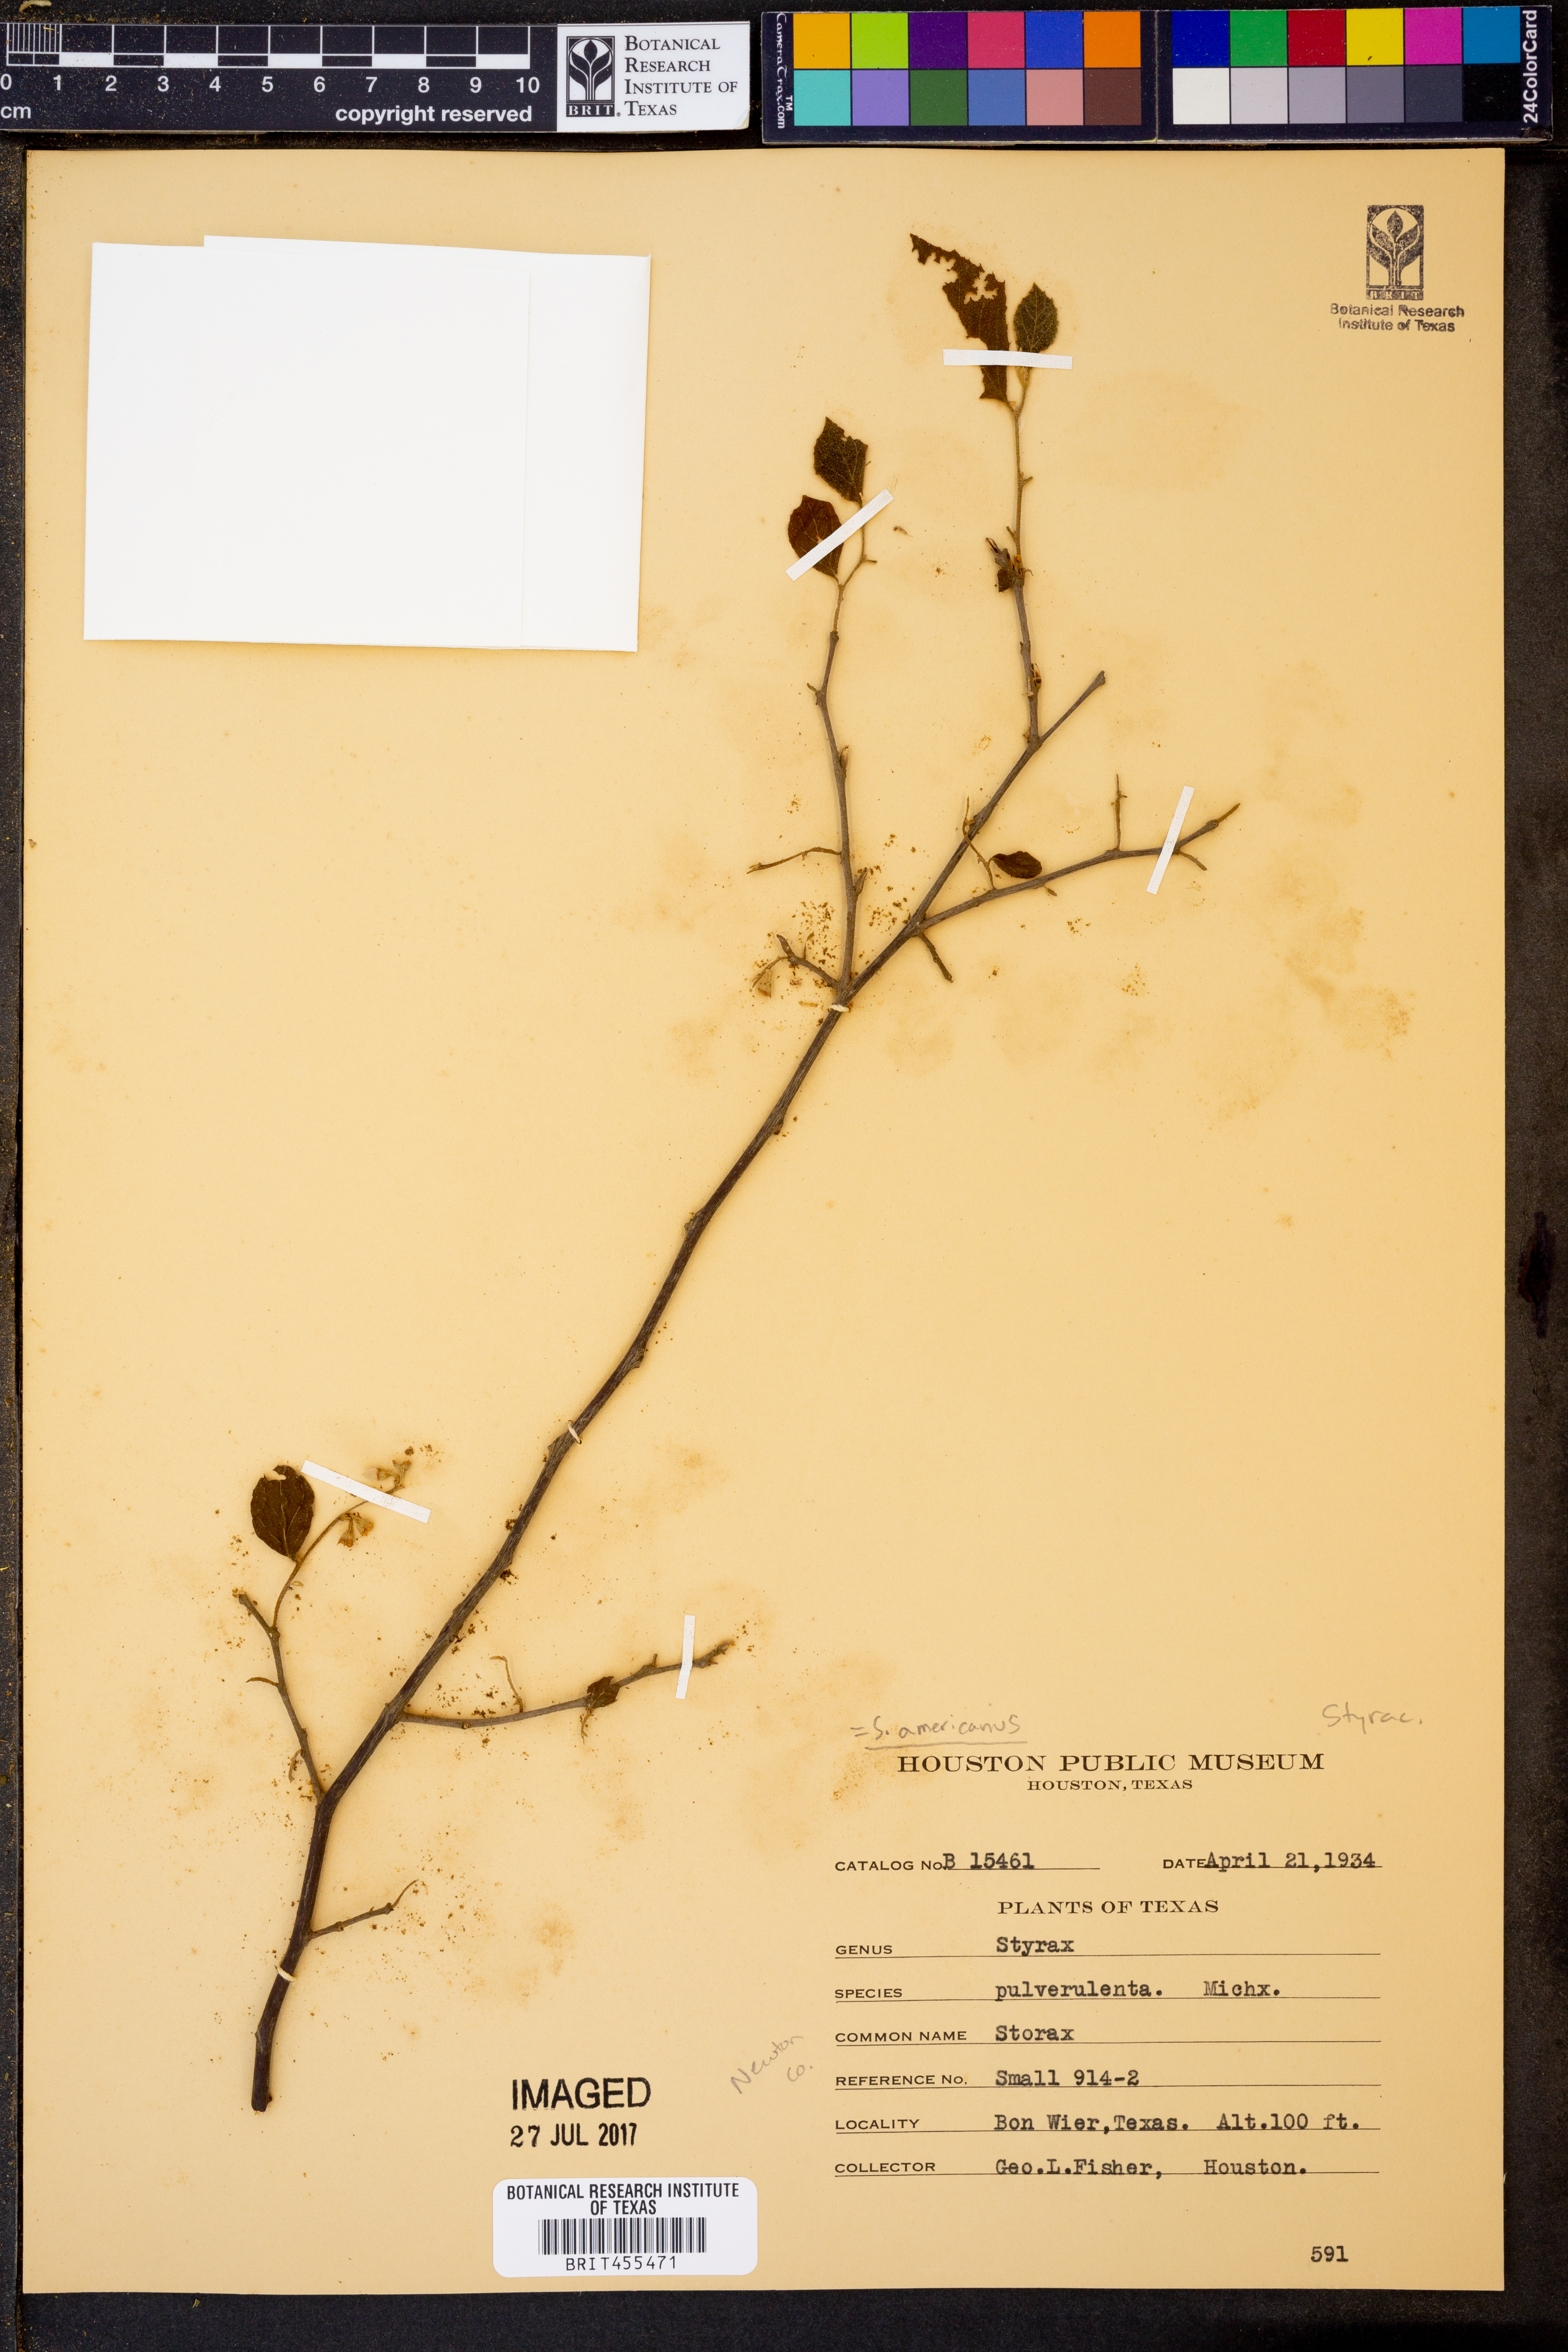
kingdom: Plantae
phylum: Tracheophyta
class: Magnoliopsida
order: Ericales
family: Styracaceae
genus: Styrax
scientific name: Styrax americanus
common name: American snowbell
